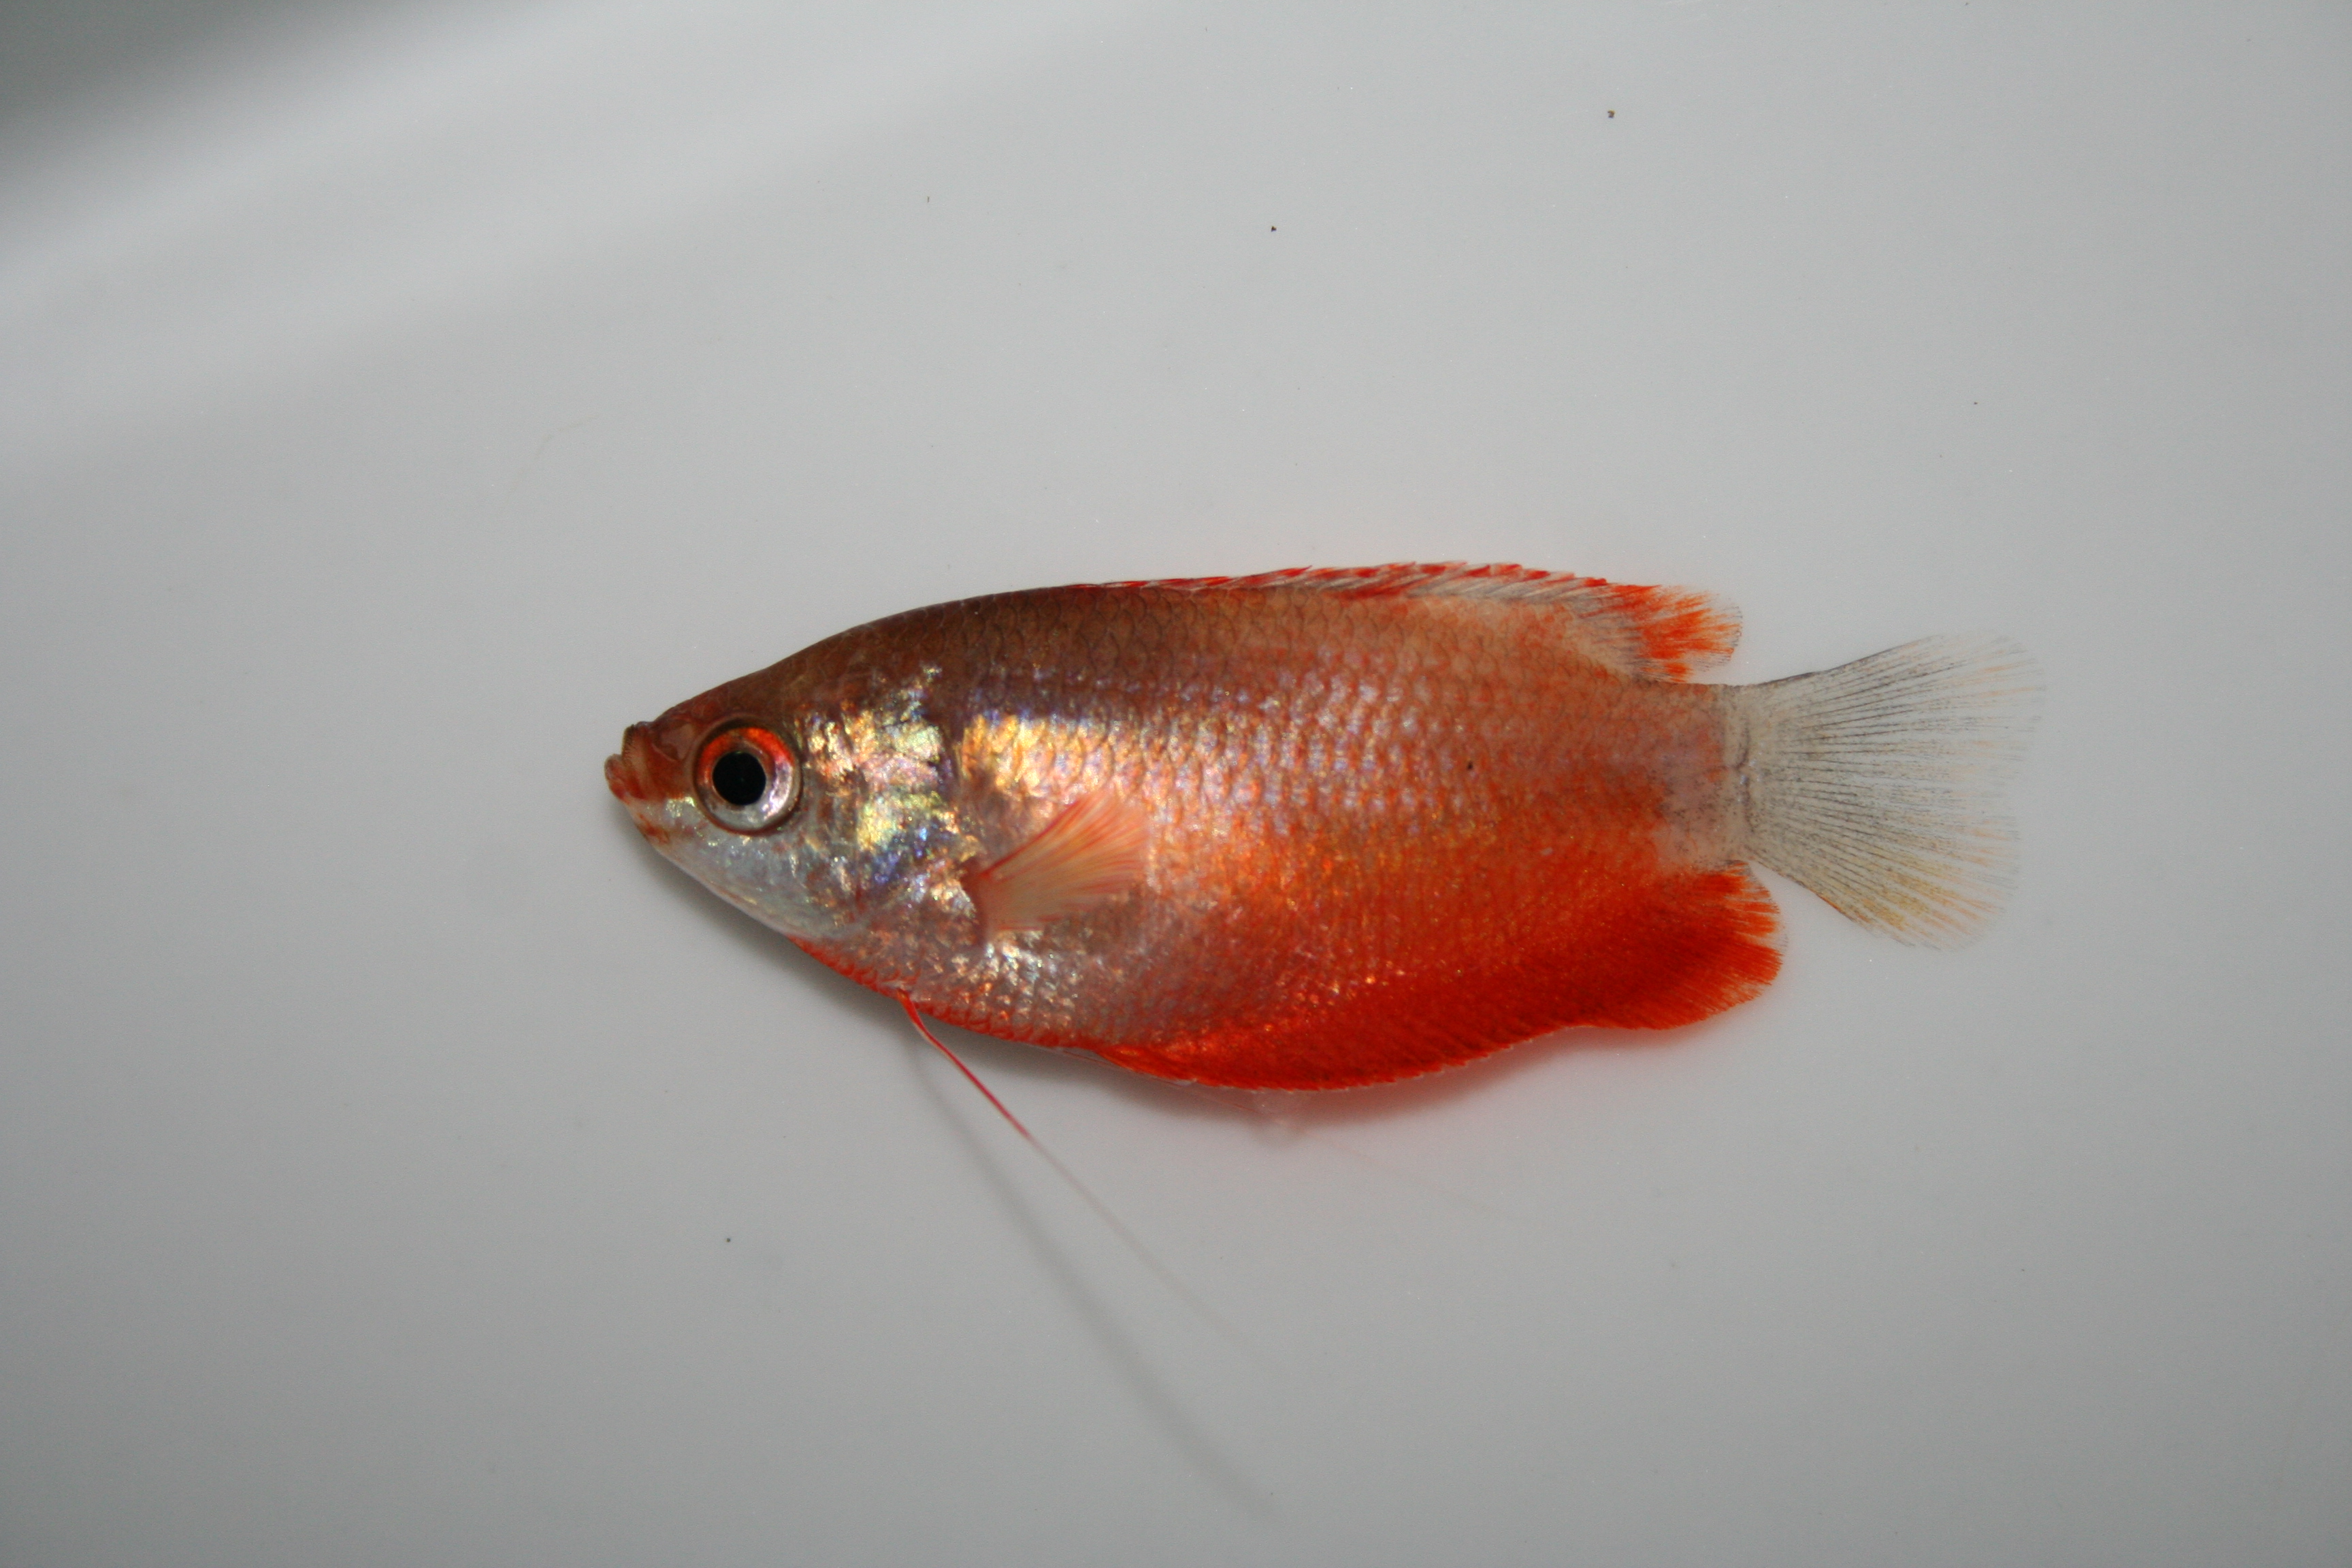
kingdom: Animalia
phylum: Chordata
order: Perciformes
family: Osphronemidae
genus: Trichogaster
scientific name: Trichogaster lalius
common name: Dwarf gourami
